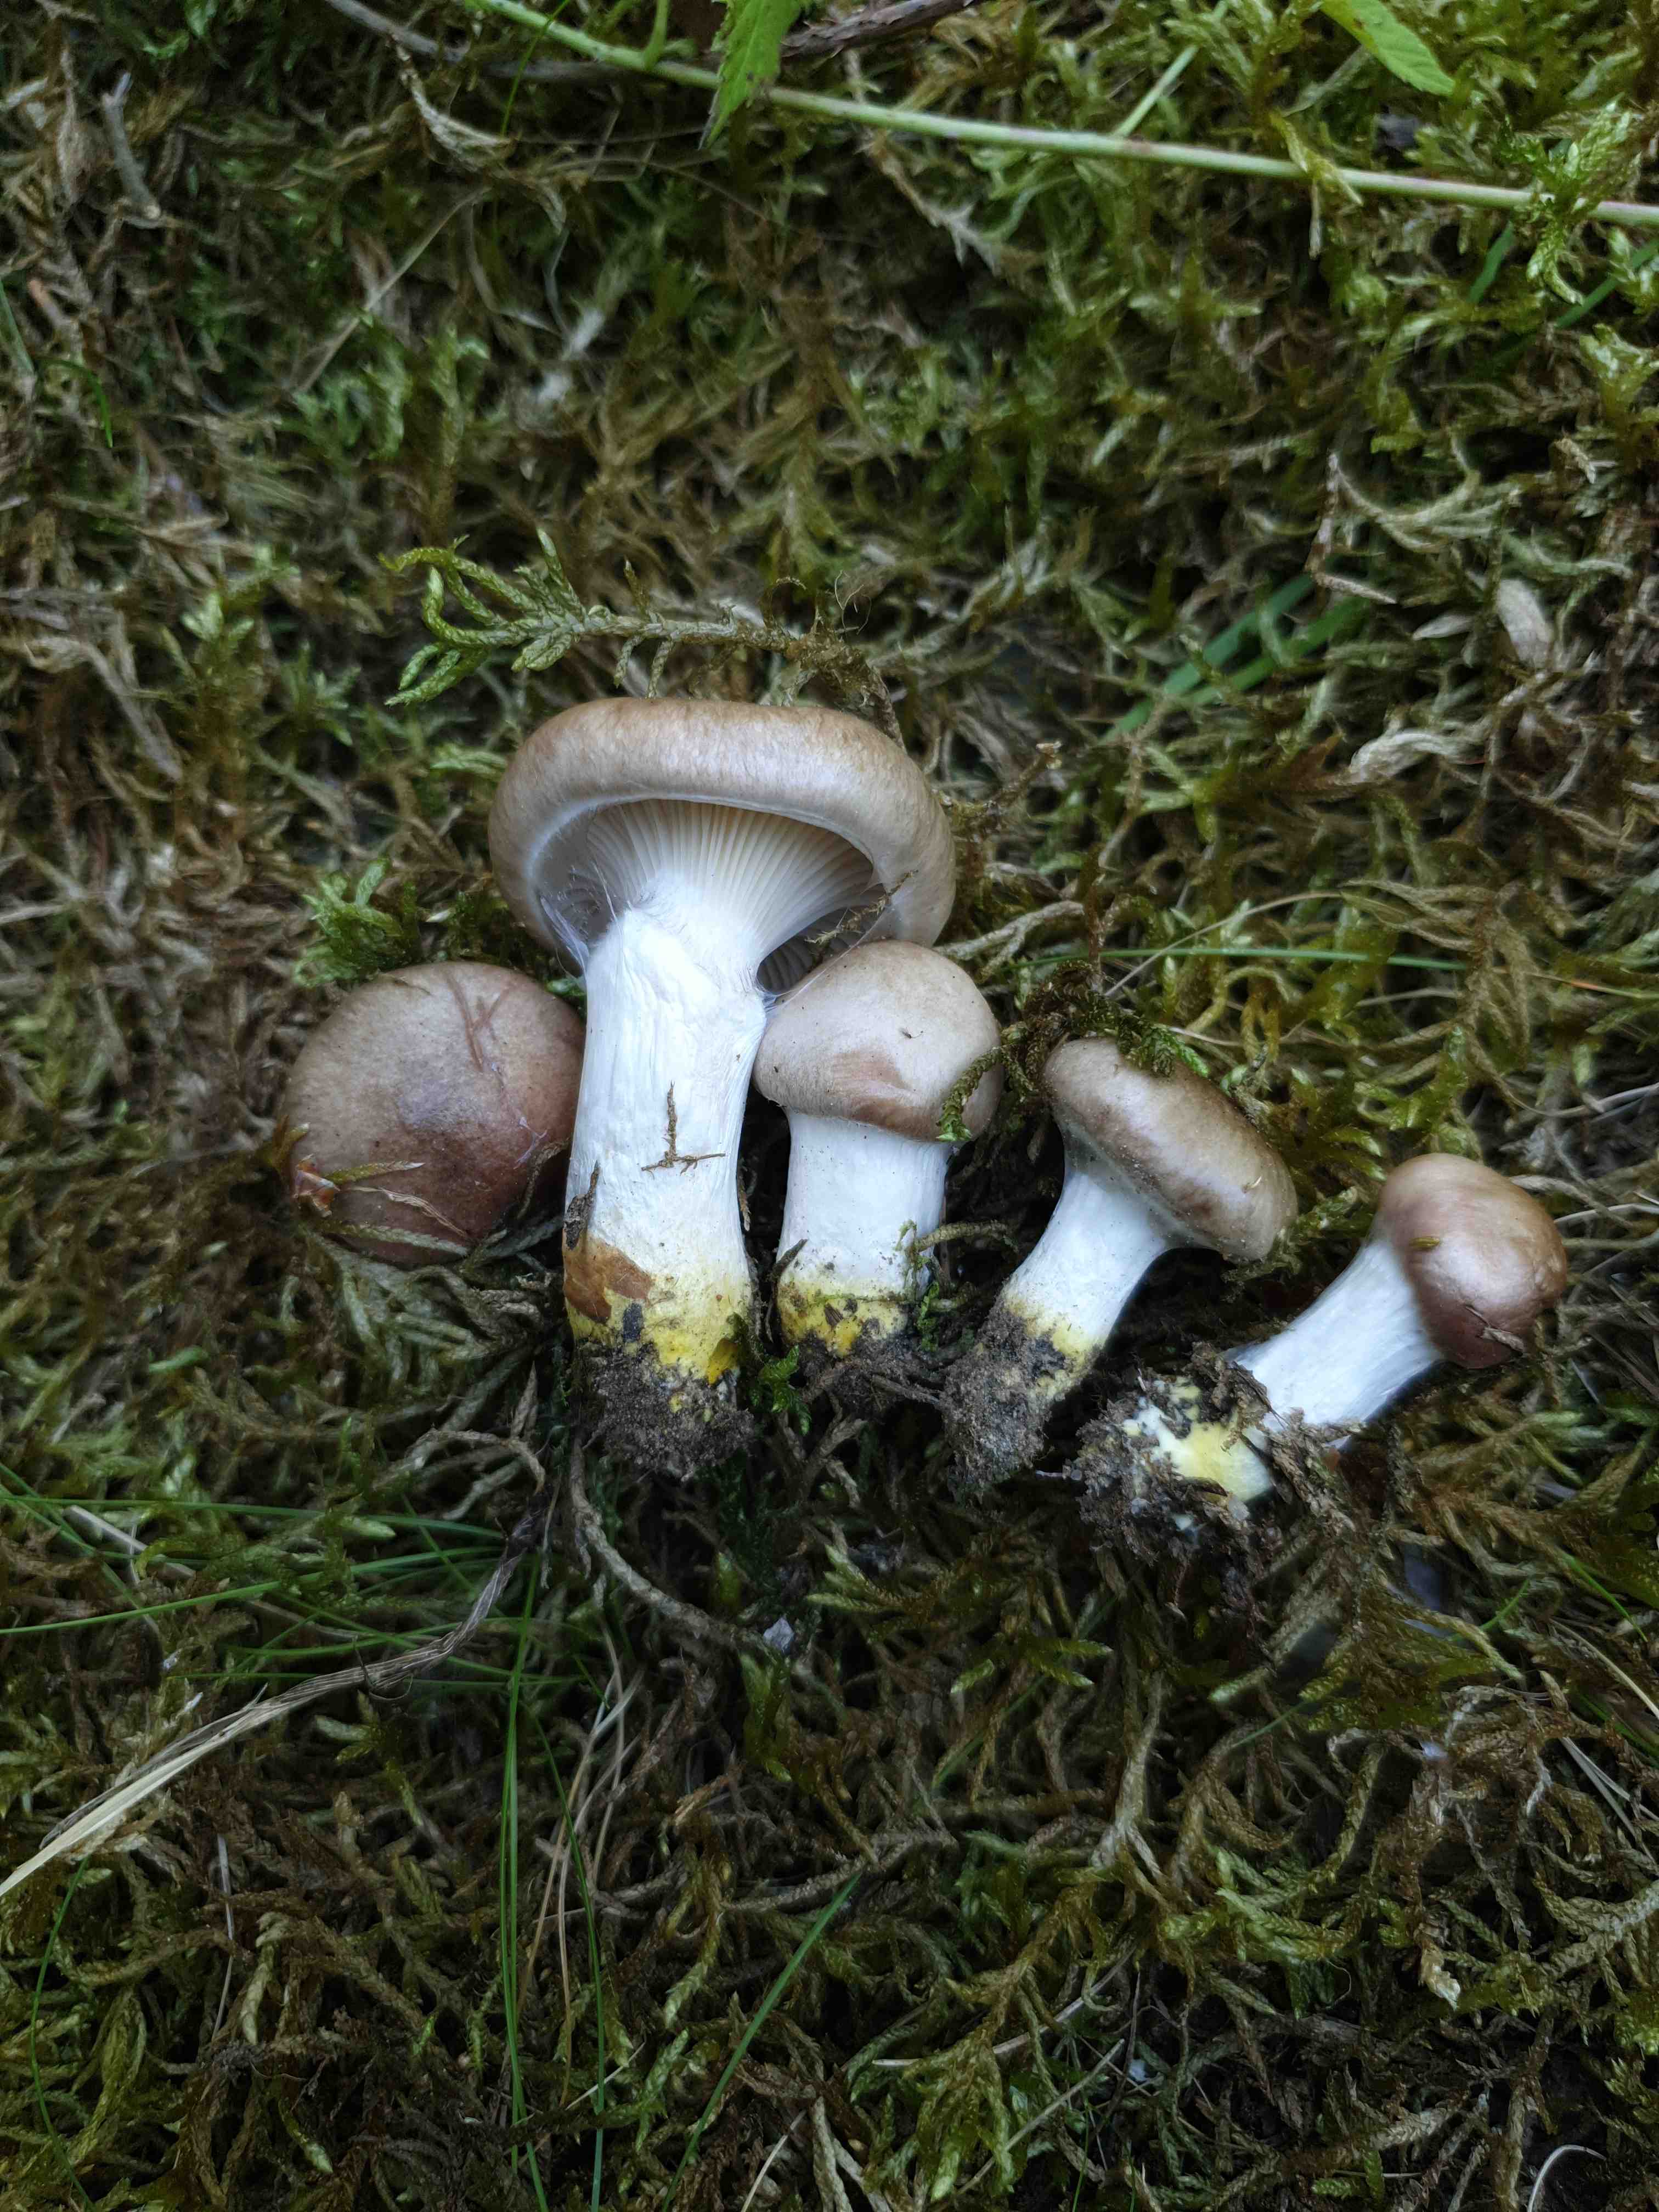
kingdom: Fungi
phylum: Basidiomycota
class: Agaricomycetes
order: Boletales
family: Gomphidiaceae
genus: Gomphidius
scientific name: Gomphidius glutinosus
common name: grå slimslør
